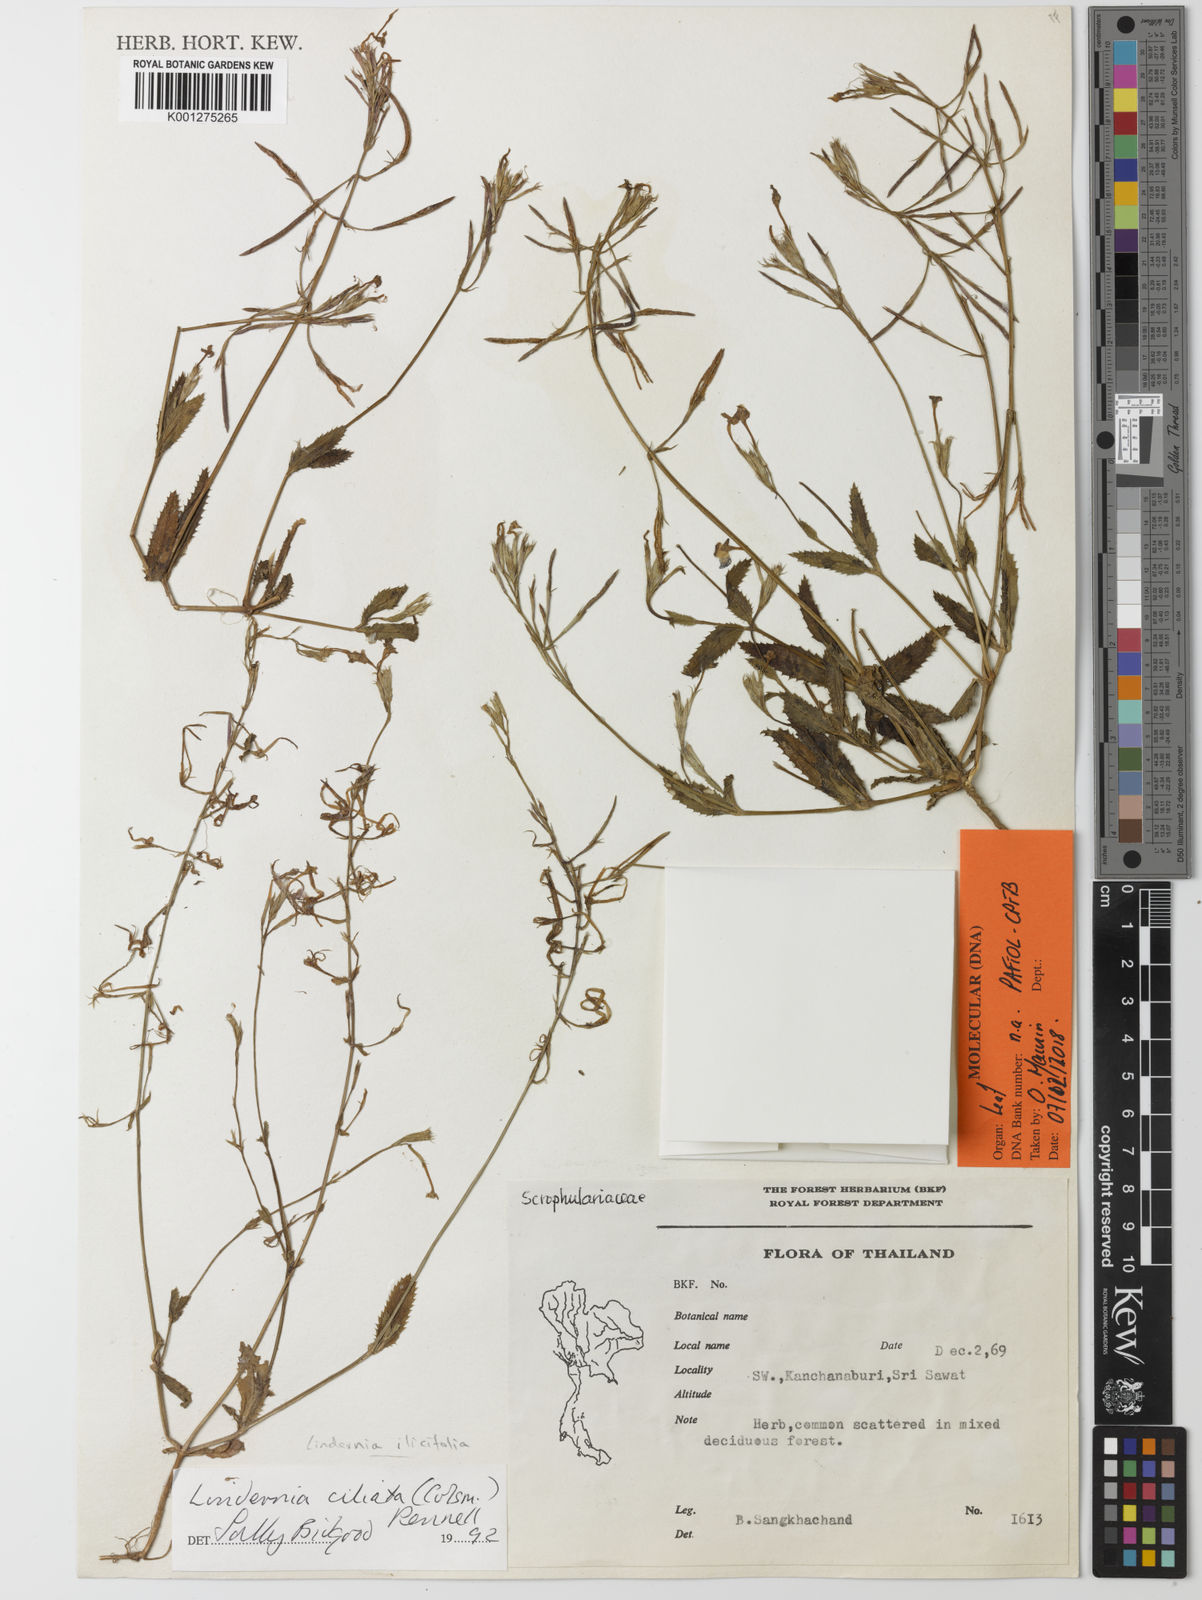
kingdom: Plantae
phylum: Tracheophyta
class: Magnoliopsida
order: Lamiales
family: Linderniaceae
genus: Bonnaya
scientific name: Bonnaya ciliata
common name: Hairy slitwort
